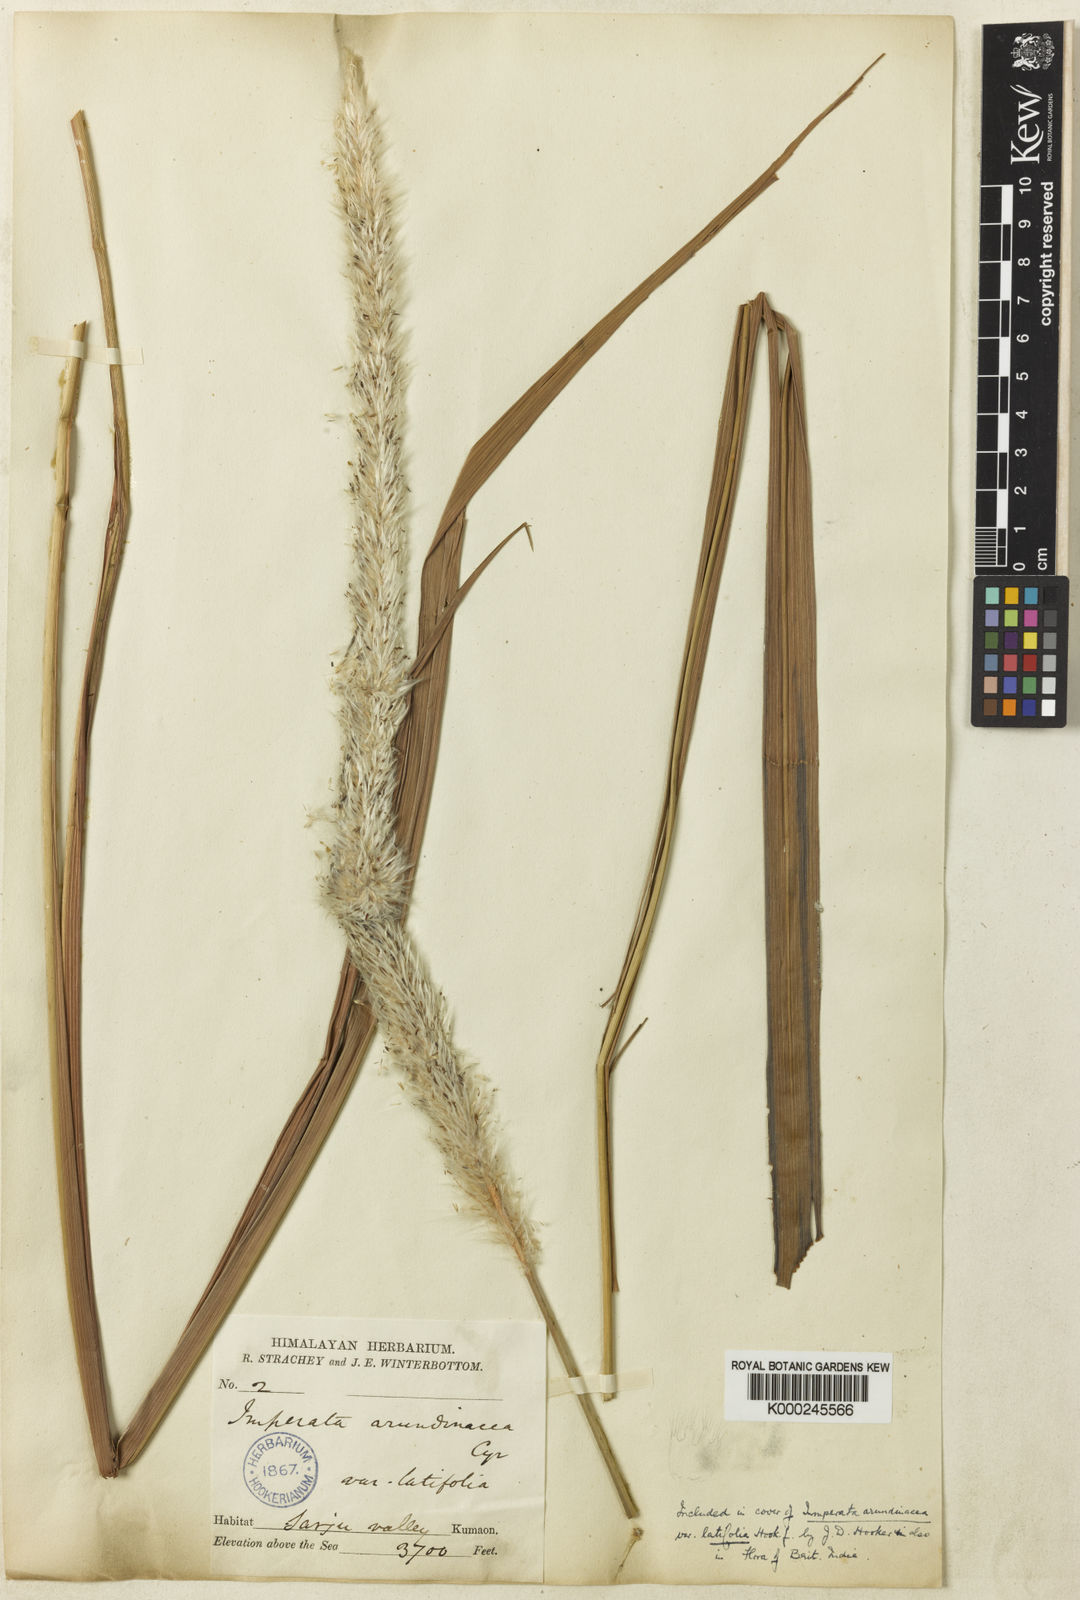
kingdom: Plantae
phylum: Tracheophyta
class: Liliopsida
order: Poales
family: Poaceae
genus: Imperata
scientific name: Imperata
